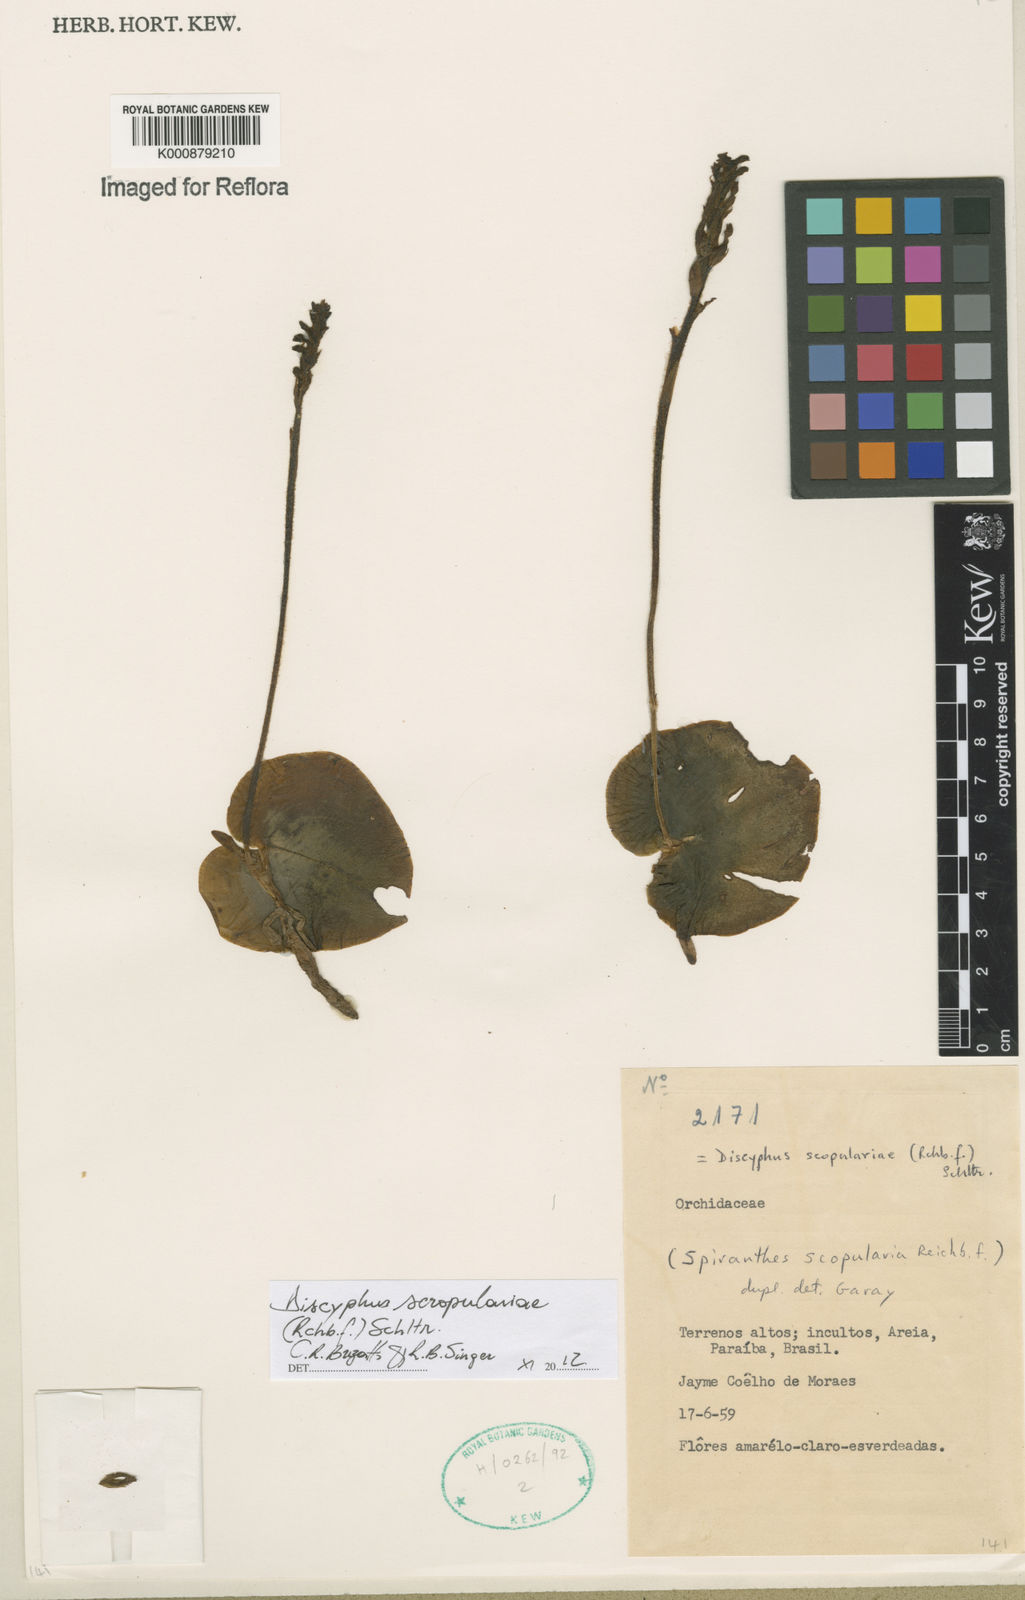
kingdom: Plantae
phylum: Tracheophyta
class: Liliopsida
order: Asparagales
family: Orchidaceae
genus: Discyphus
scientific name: Discyphus scopulariae
